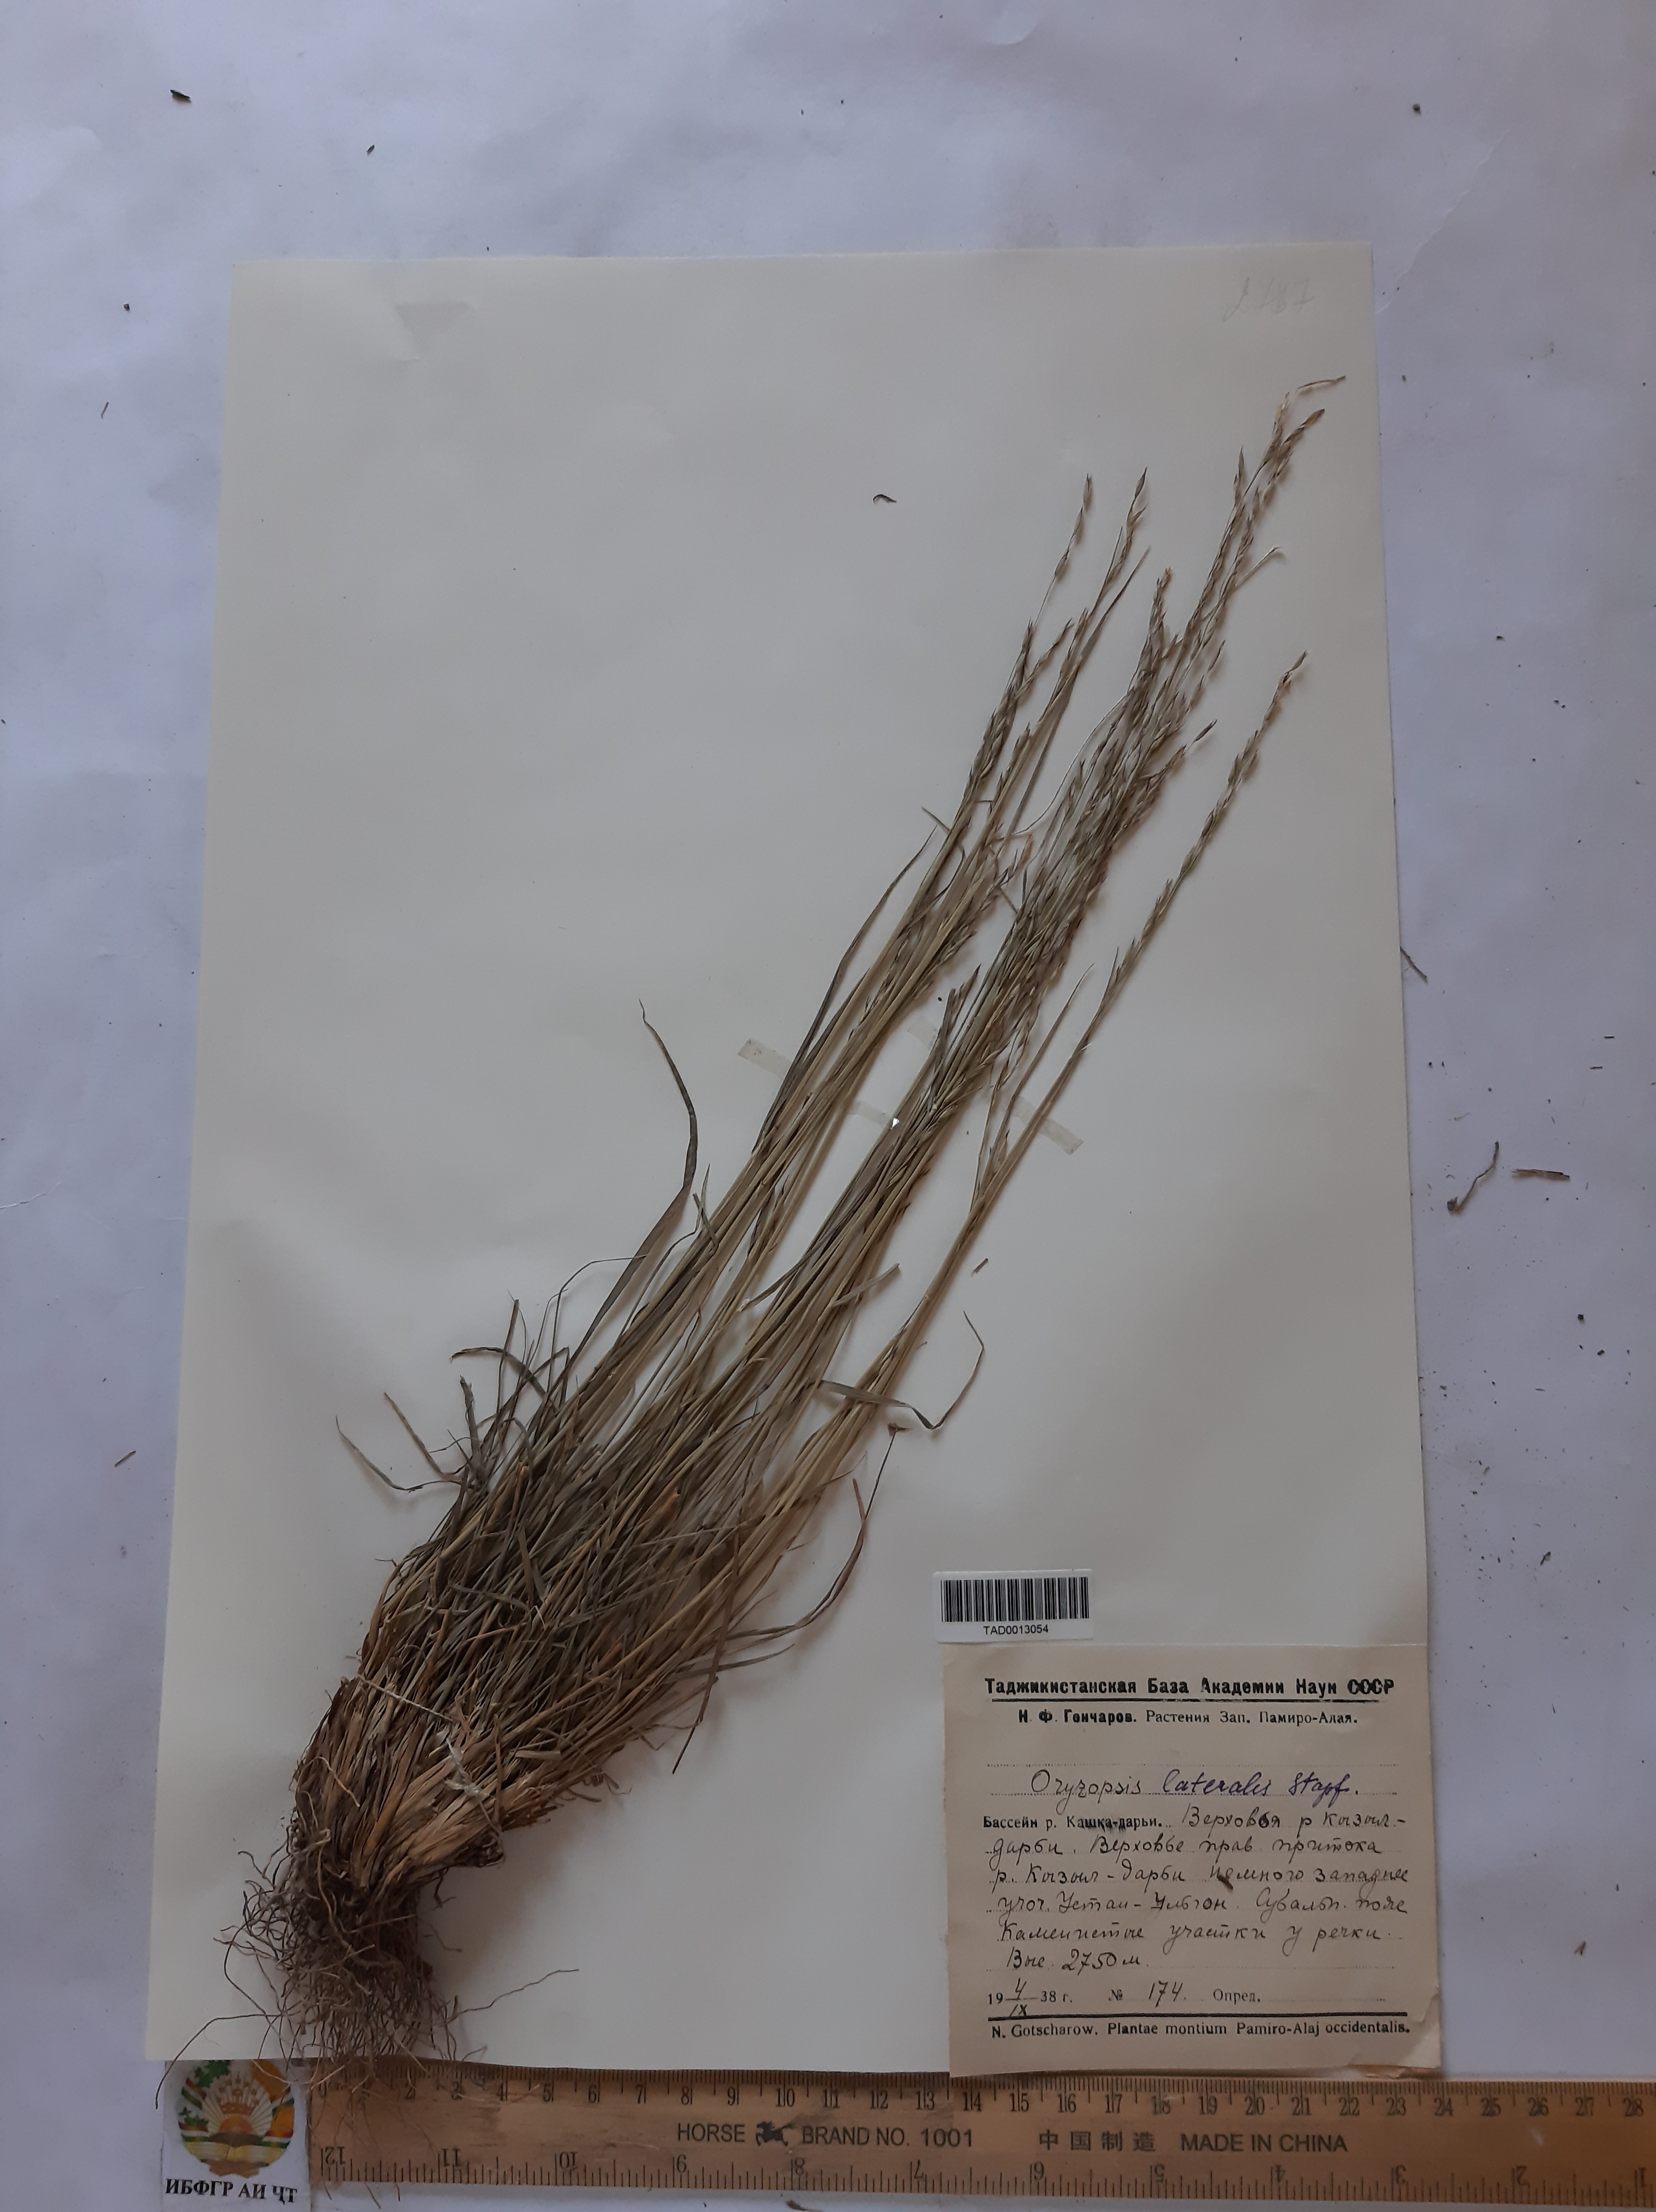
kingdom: Plantae
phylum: Tracheophyta
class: Liliopsida
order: Poales
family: Poaceae
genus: Piptatherum
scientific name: Piptatherum laterale
